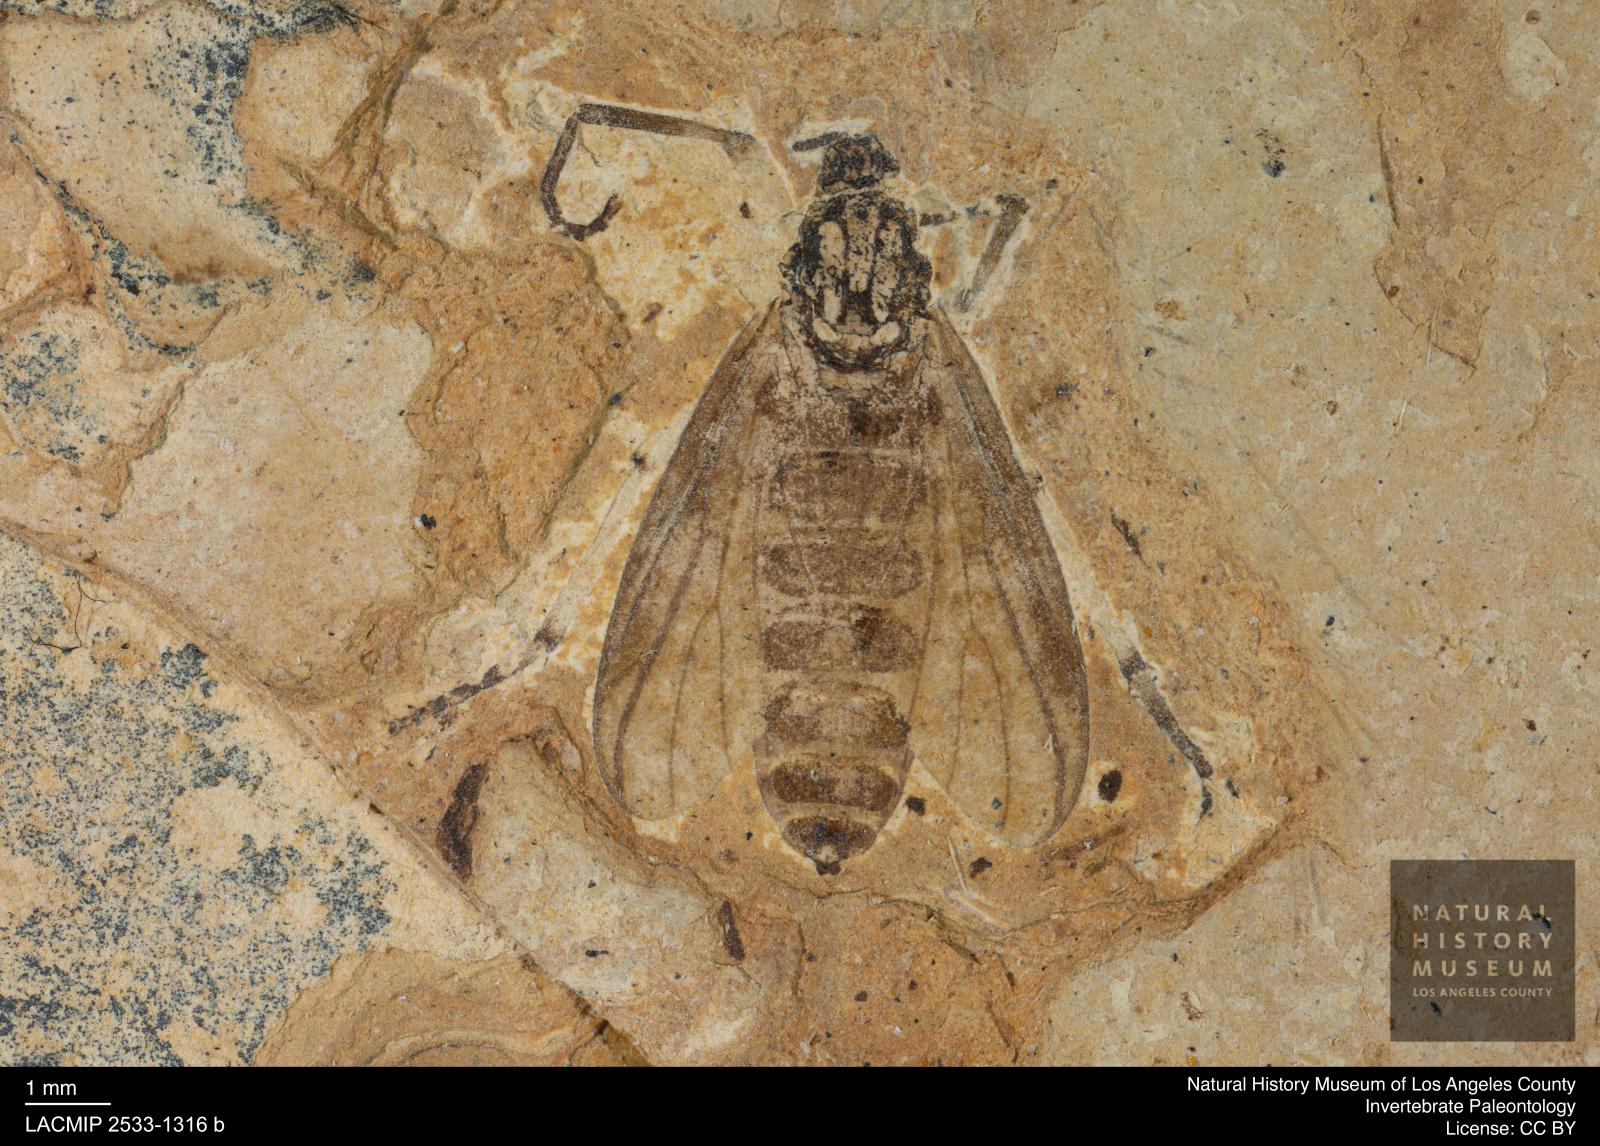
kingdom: Animalia
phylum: Arthropoda
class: Insecta
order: Diptera
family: Bibionidae
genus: Plecia
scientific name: Plecia pinguis
